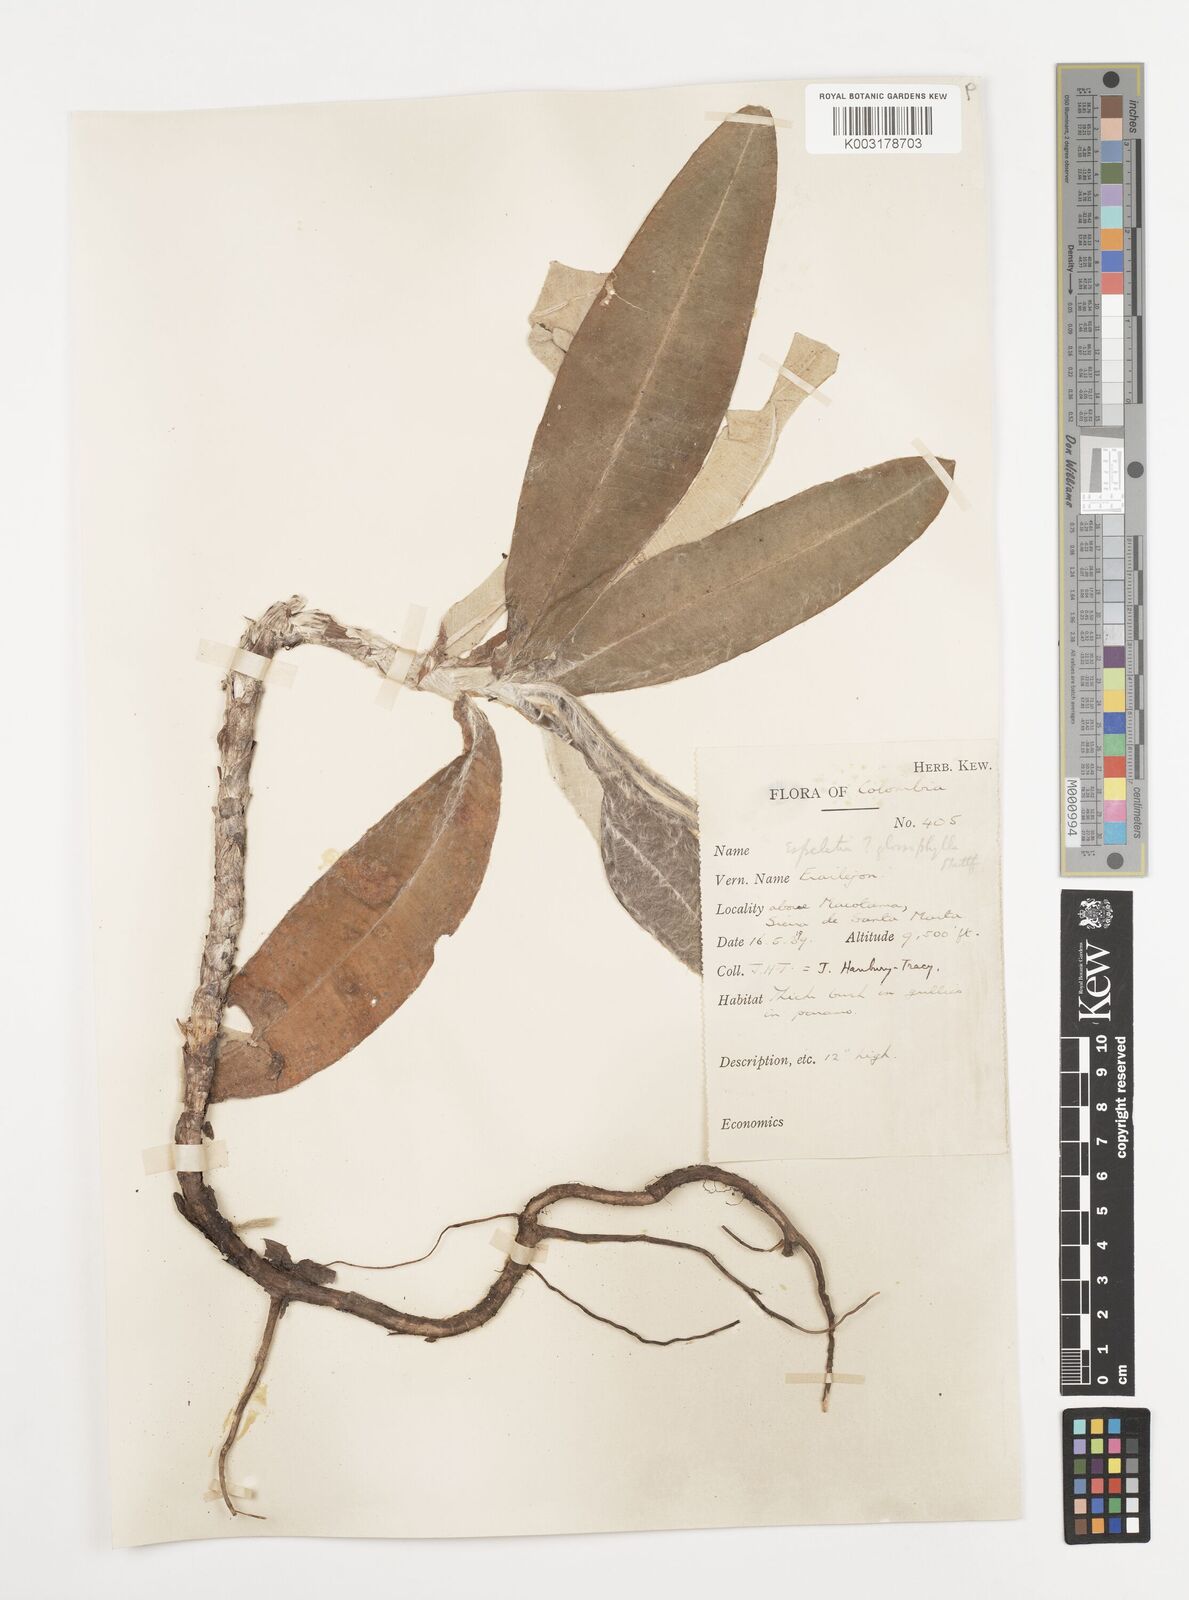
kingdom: Plantae
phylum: Tracheophyta
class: Magnoliopsida
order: Asterales
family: Asteraceae
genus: Espeletia
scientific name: Espeletia occulta
